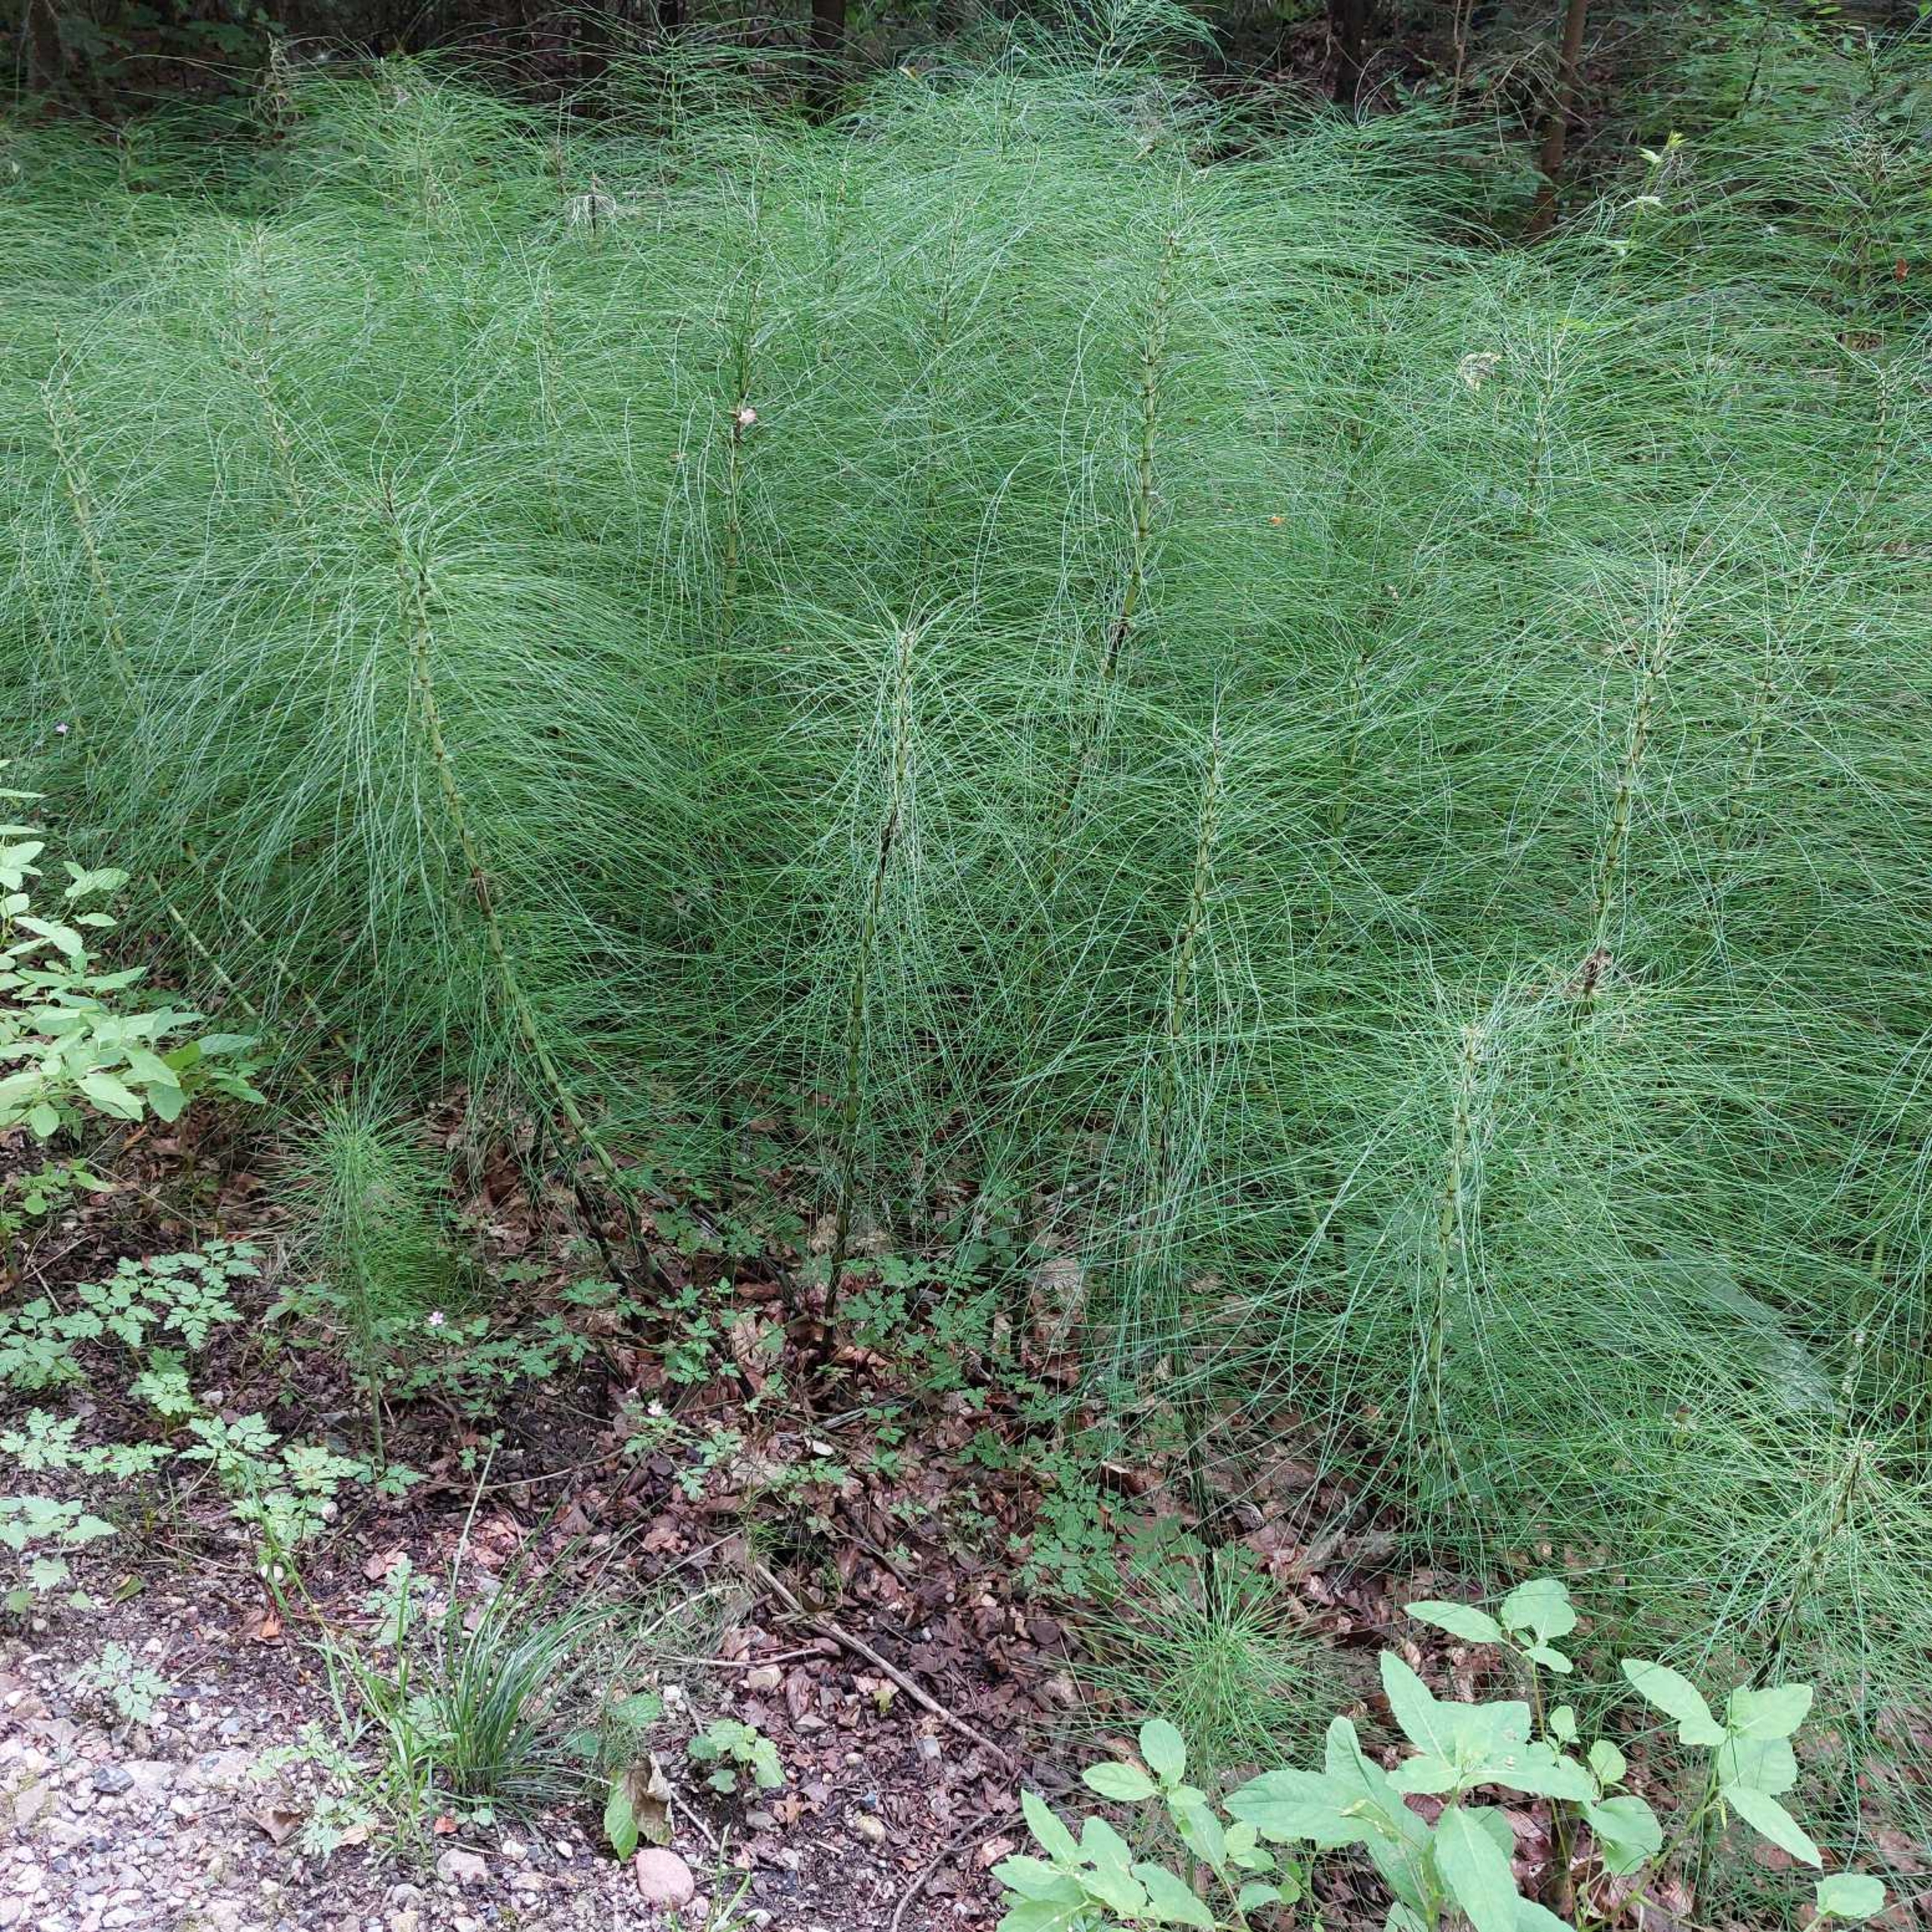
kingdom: Plantae
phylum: Tracheophyta
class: Polypodiopsida
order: Equisetales
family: Equisetaceae
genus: Equisetum
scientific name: Equisetum telmateia
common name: Elfenbens-padderok
